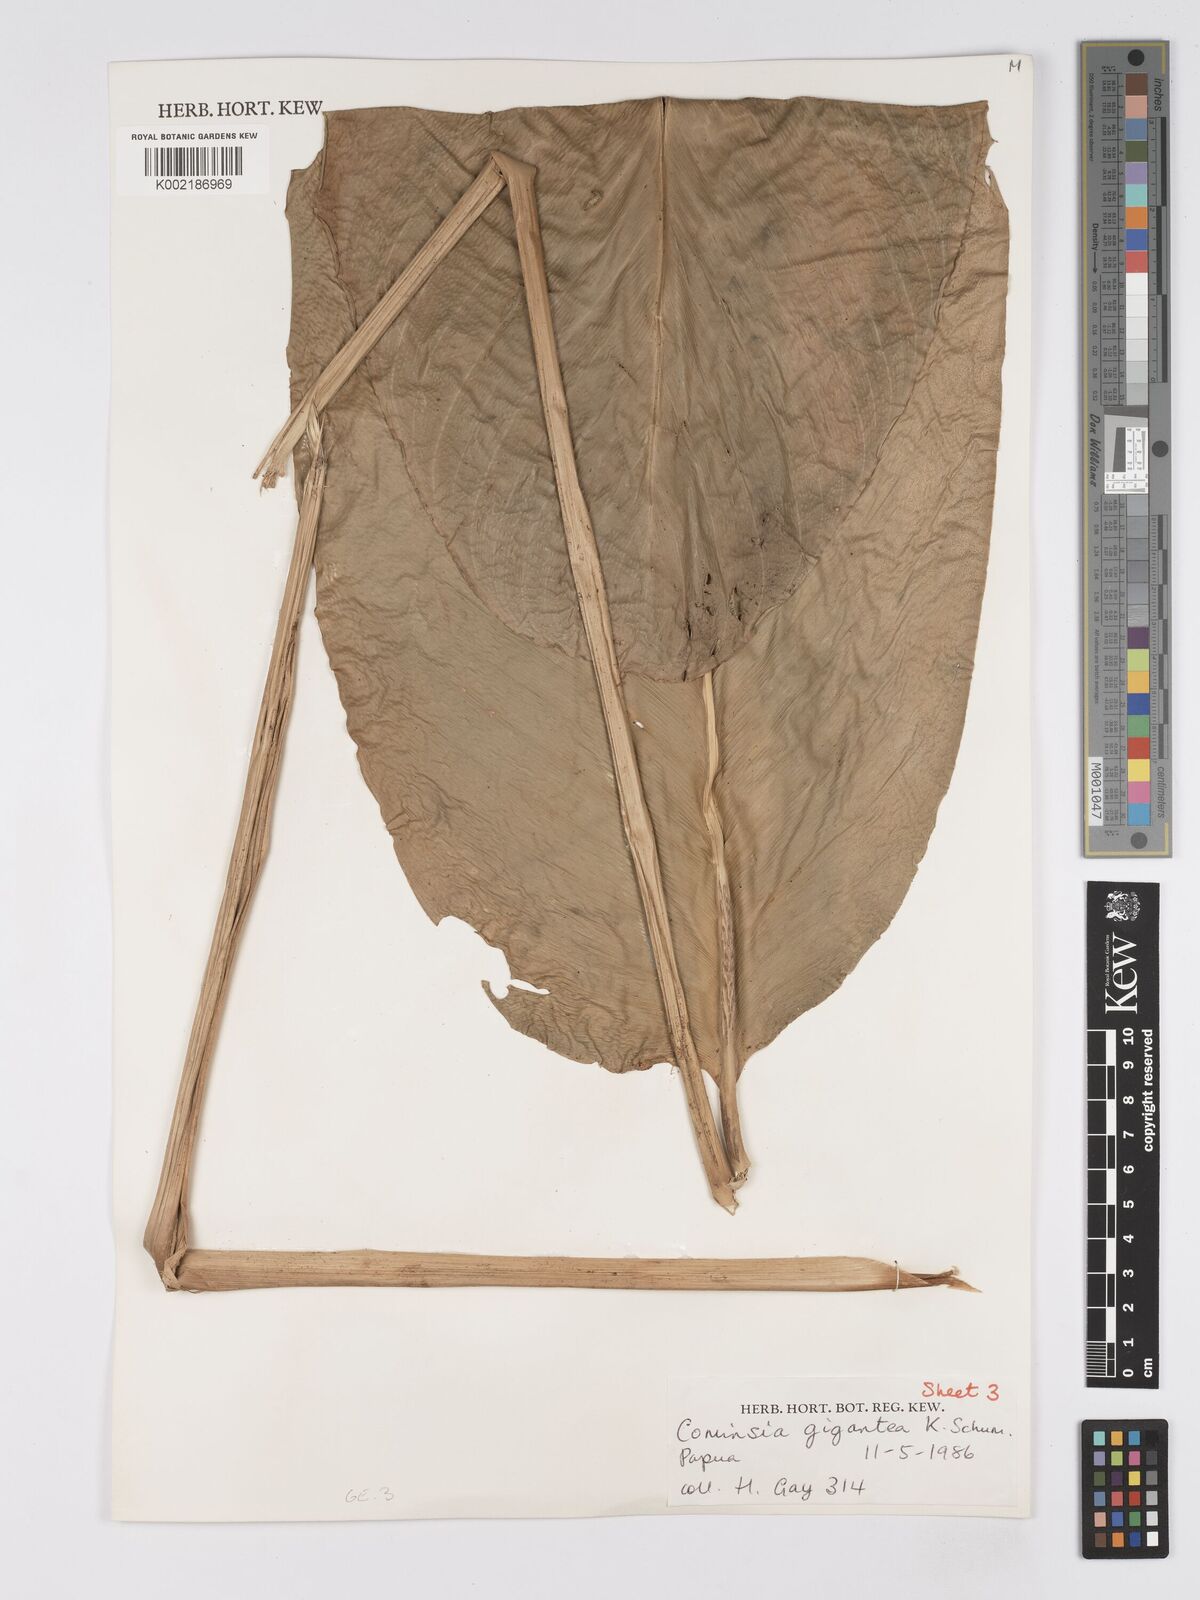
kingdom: Plantae
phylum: Tracheophyta
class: Liliopsida
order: Zingiberales
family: Marantaceae
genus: Phrynium
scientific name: Phrynium giganteum
